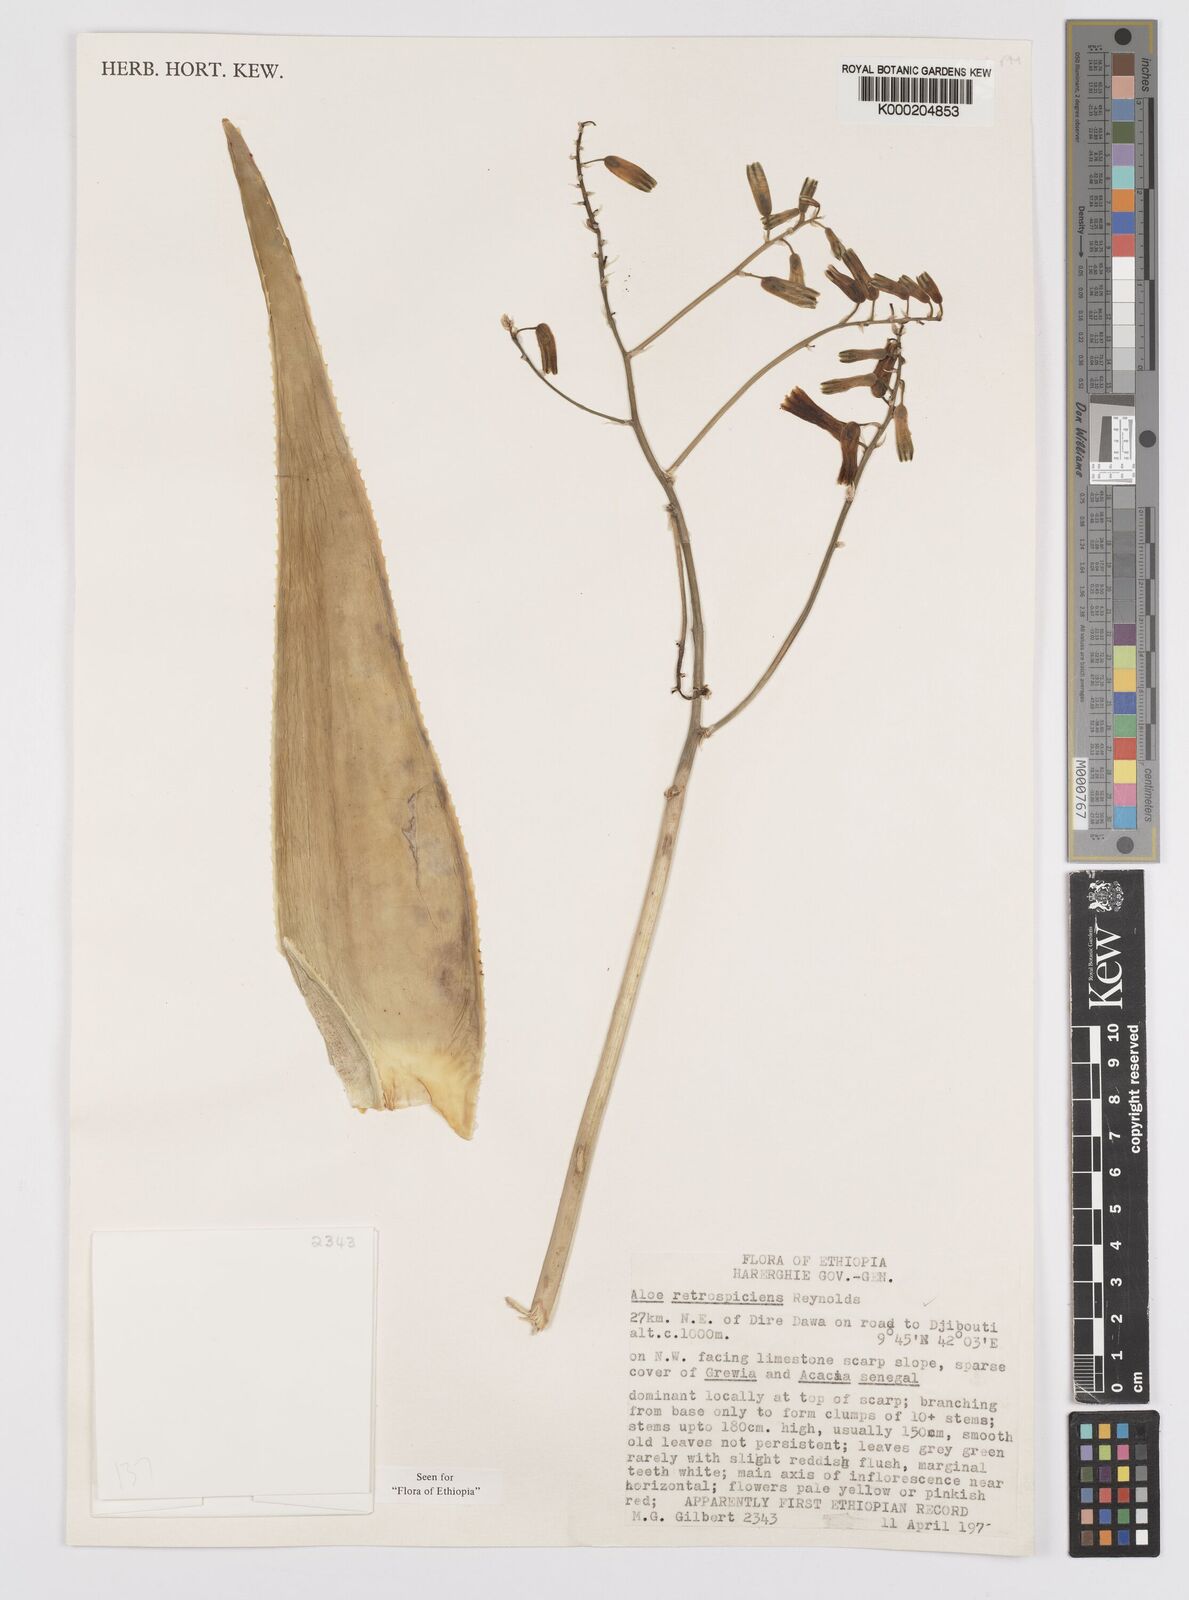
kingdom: Plantae
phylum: Tracheophyta
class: Liliopsida
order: Asparagales
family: Asphodelaceae
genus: Aloe
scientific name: Aloe retrospiciens
